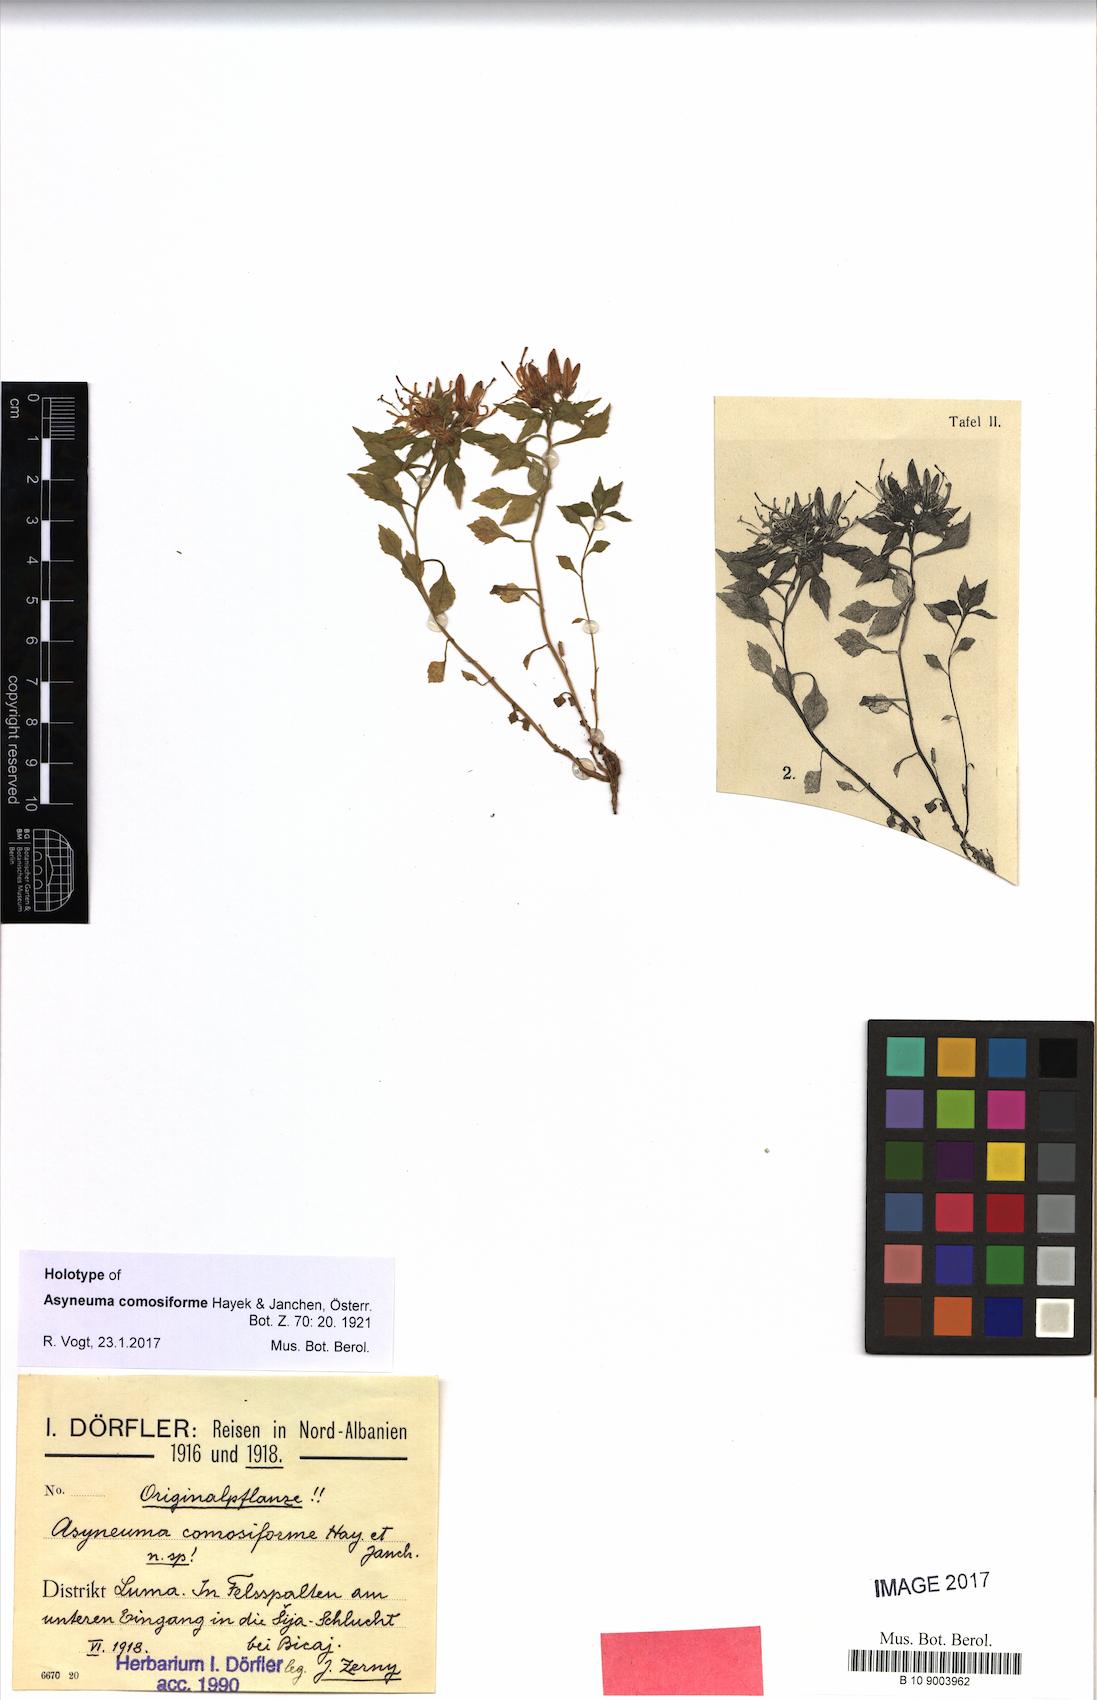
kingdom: Plantae
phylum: Tracheophyta
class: Magnoliopsida
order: Asterales
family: Campanulaceae
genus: Campanula
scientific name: Campanula comosiformis
